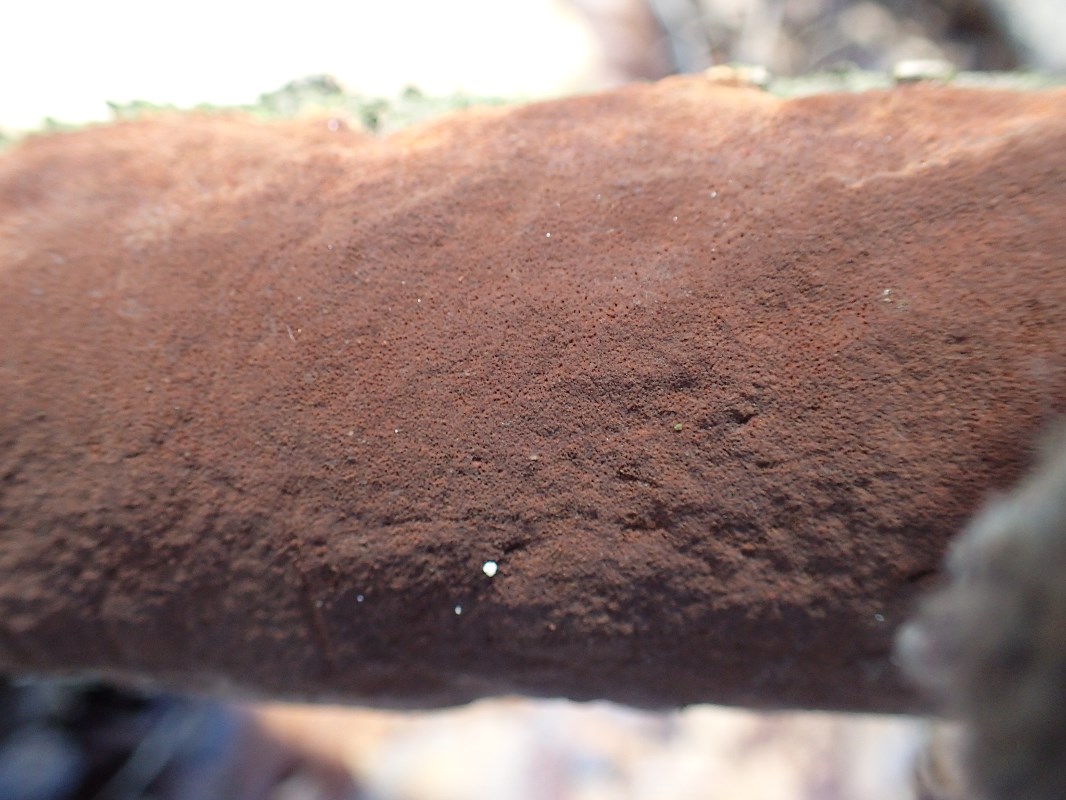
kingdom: Fungi
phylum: Basidiomycota
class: Agaricomycetes
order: Hymenochaetales
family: Hymenochaetaceae
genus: Fomitiporia
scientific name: Fomitiporia punctata
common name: pude-ildporesvamp
